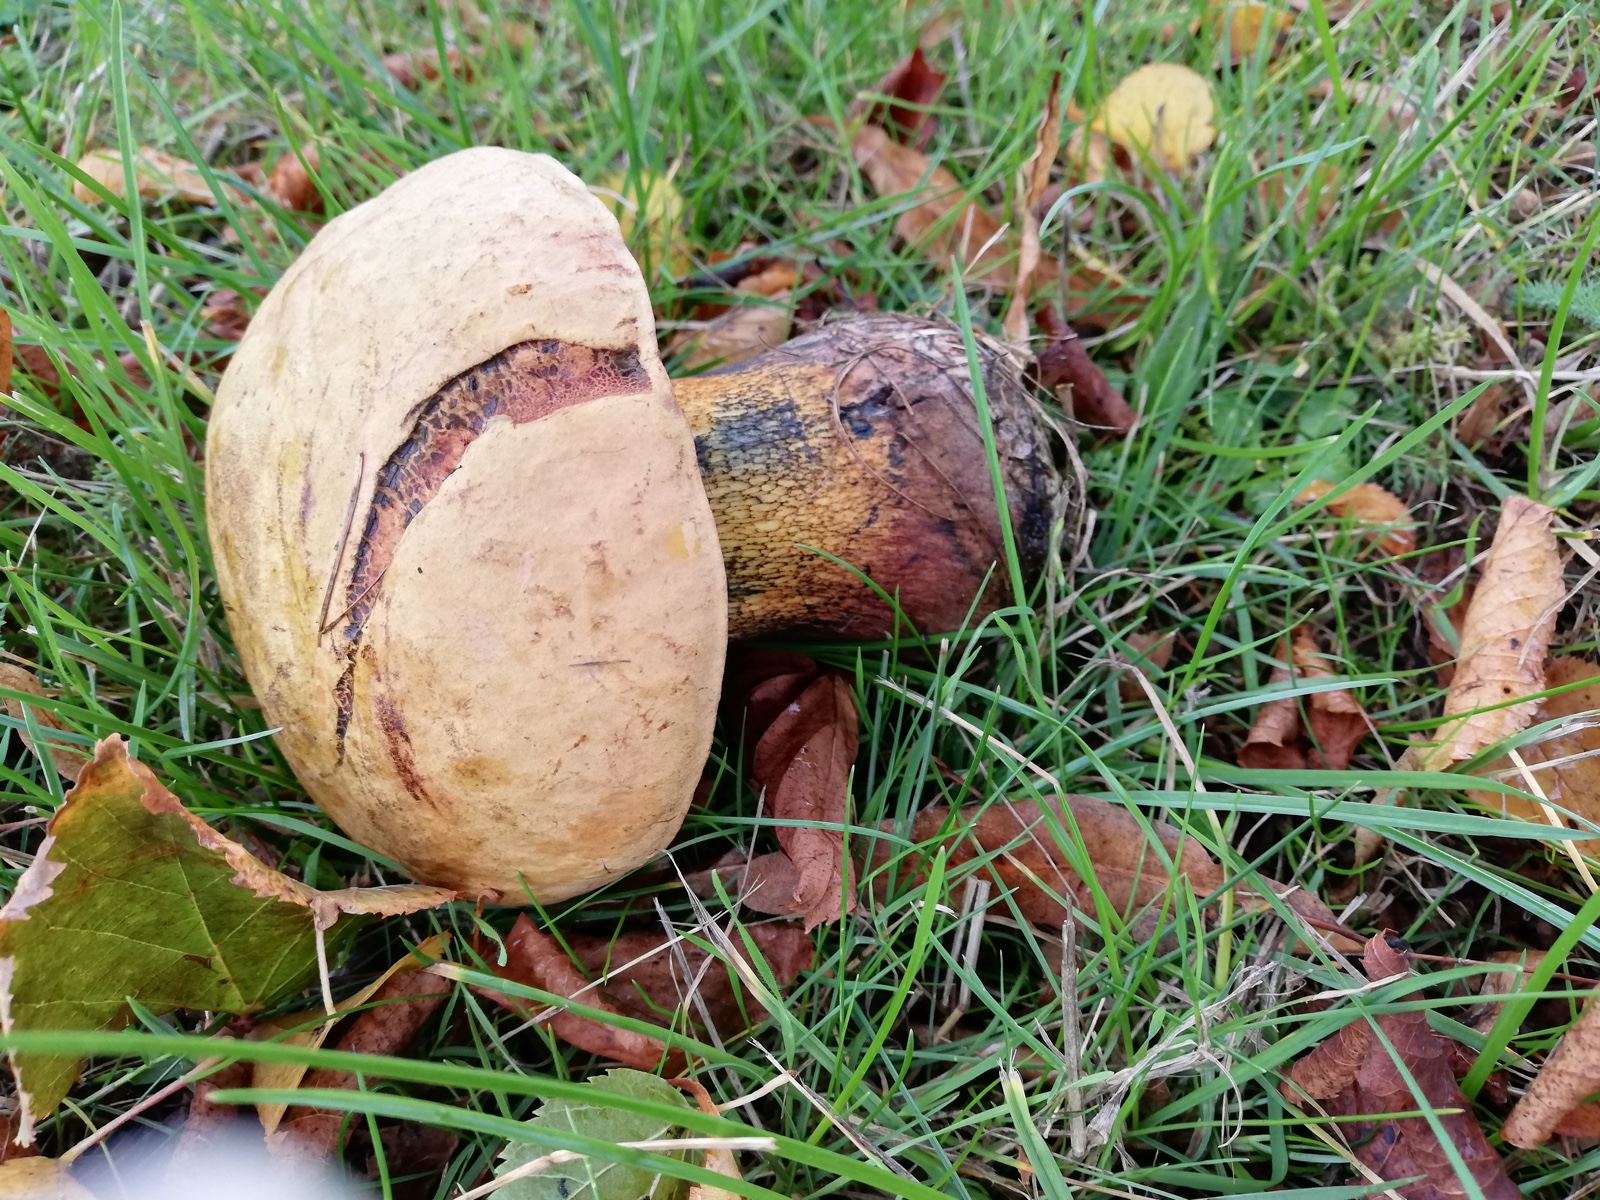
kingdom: Fungi
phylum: Basidiomycota
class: Agaricomycetes
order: Boletales
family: Boletaceae
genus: Suillellus
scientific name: Suillellus luridus
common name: netstokket indigorørhat
